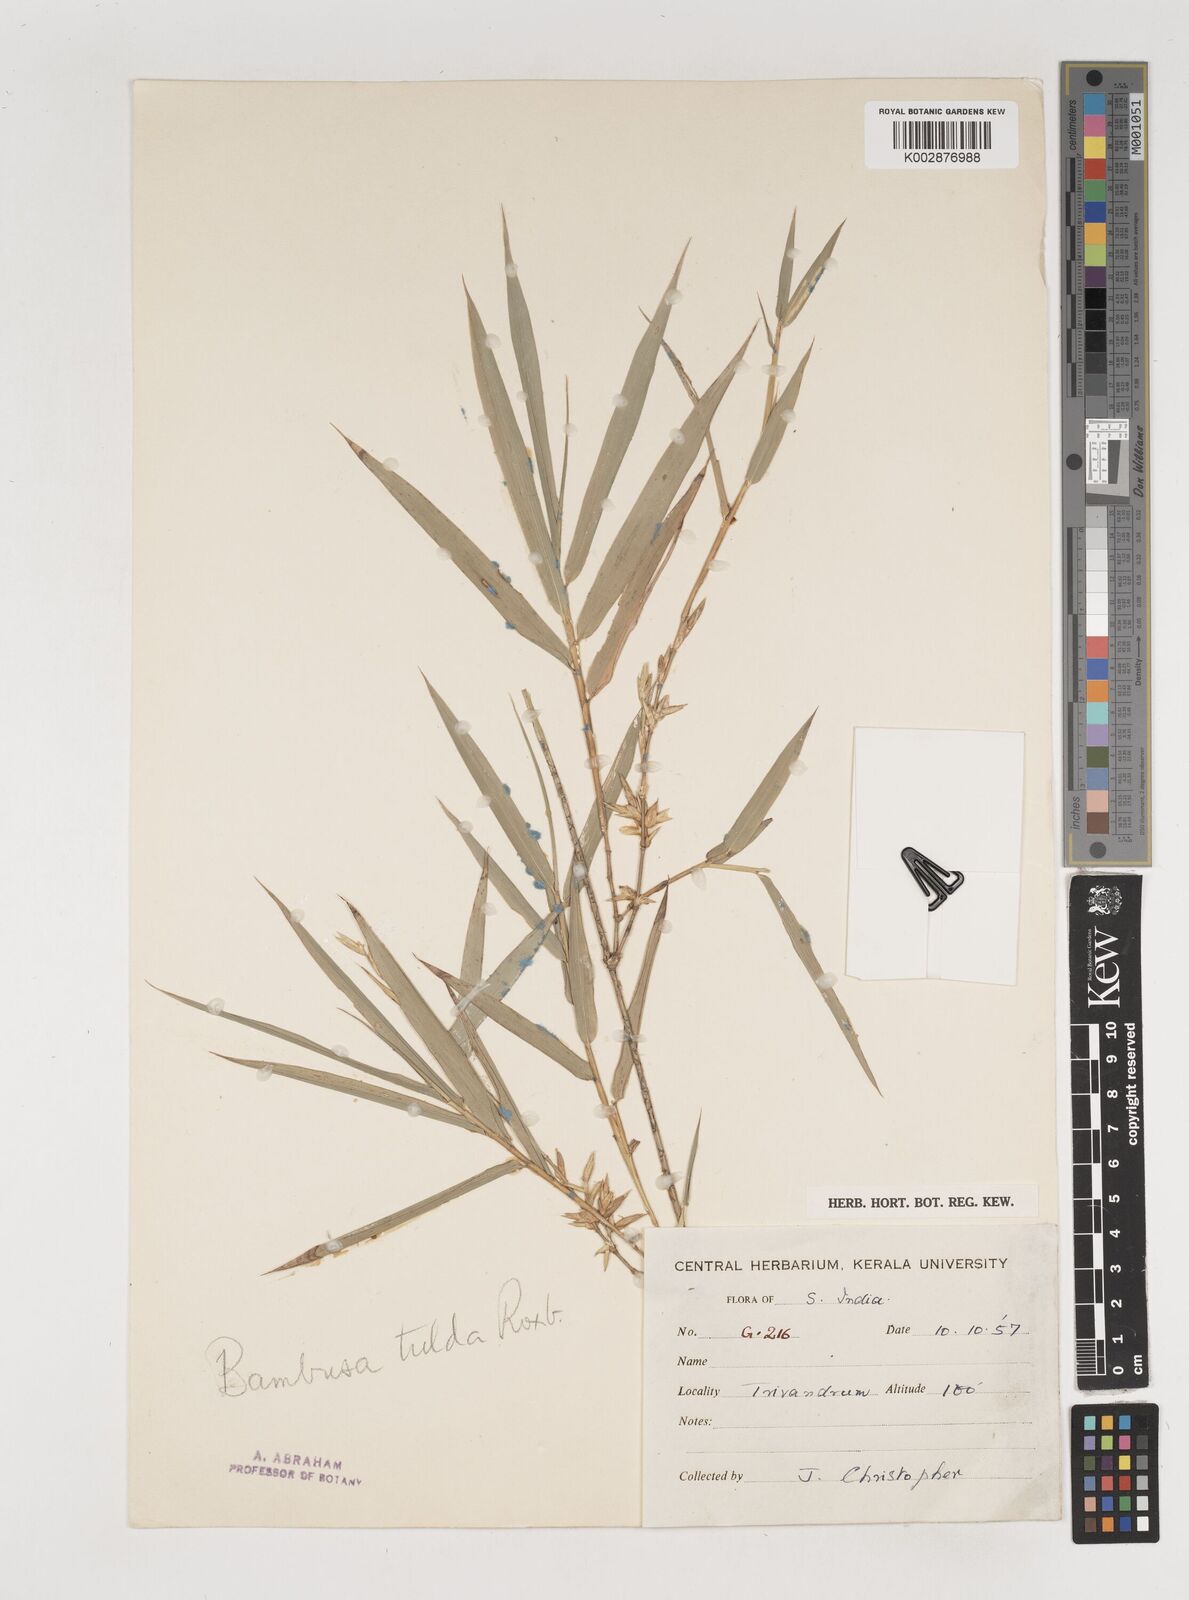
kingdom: Plantae
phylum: Tracheophyta
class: Liliopsida
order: Poales
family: Poaceae
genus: Bambusa
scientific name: Bambusa
